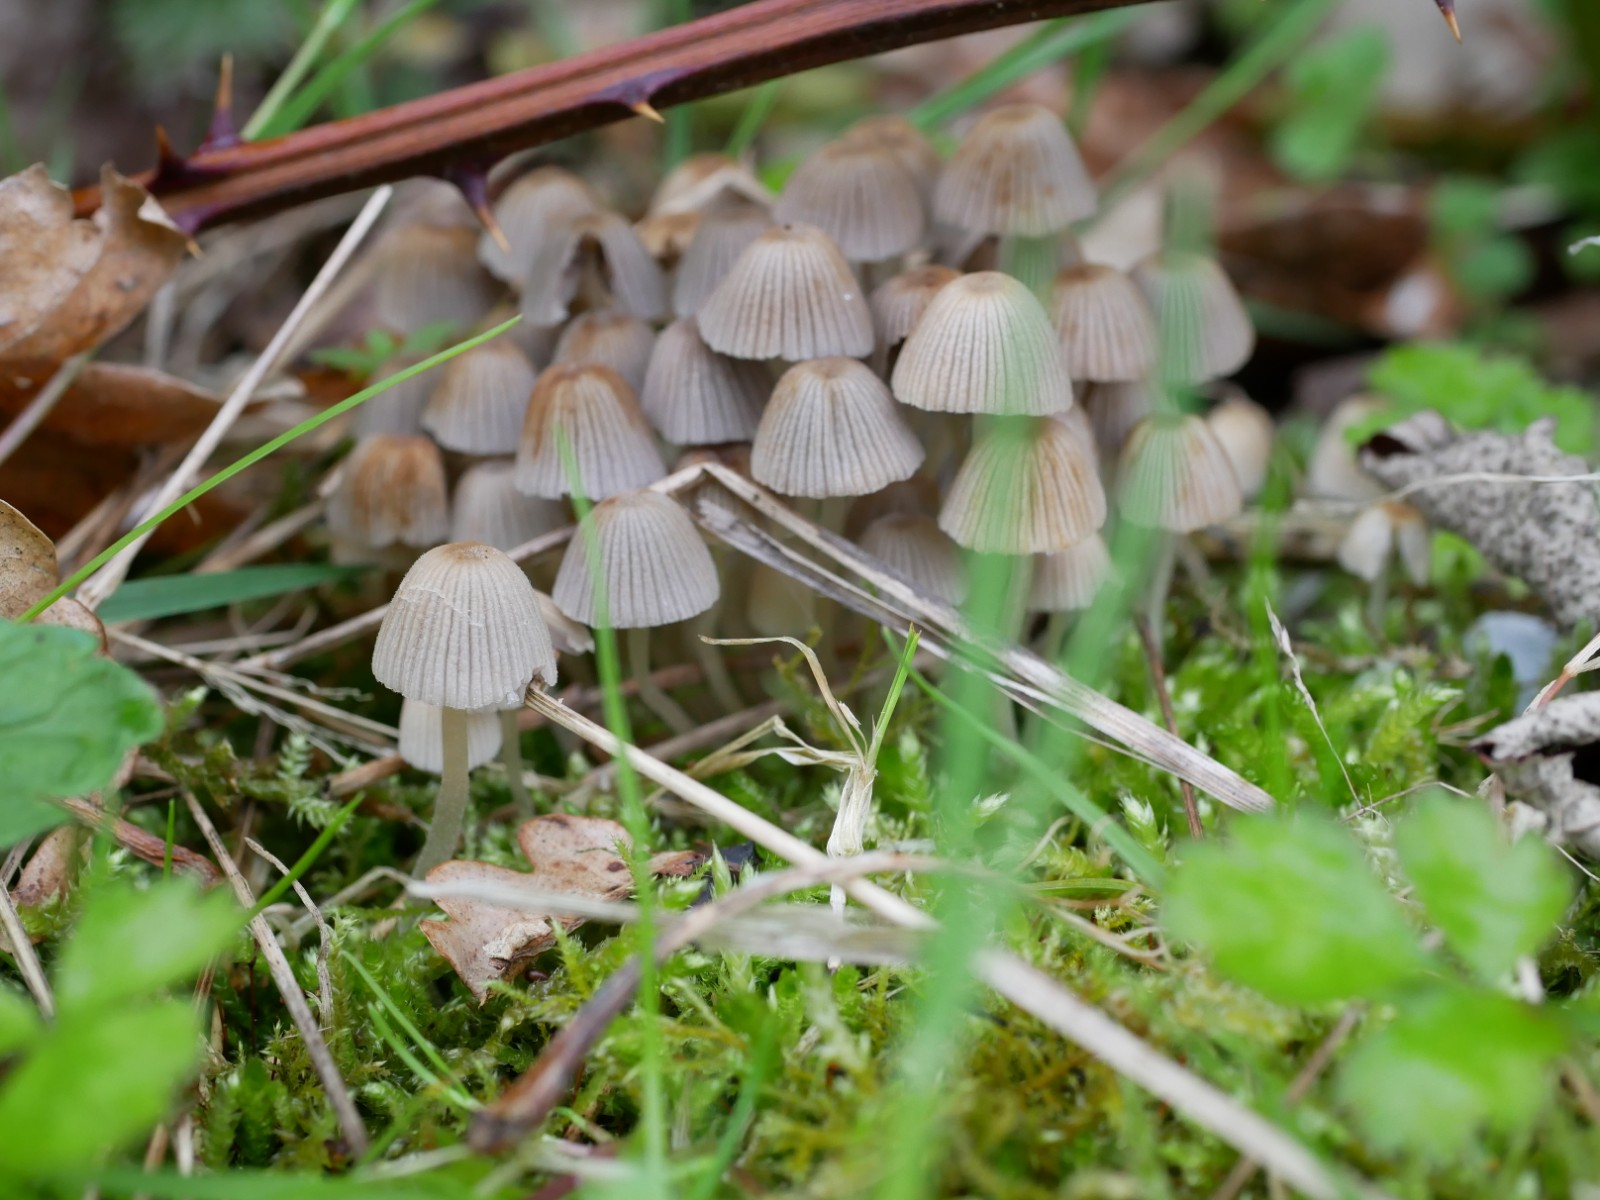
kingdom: Fungi
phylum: Basidiomycota
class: Agaricomycetes
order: Agaricales
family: Psathyrellaceae
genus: Coprinellus
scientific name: Coprinellus disseminatus
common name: bredsået blækhat
